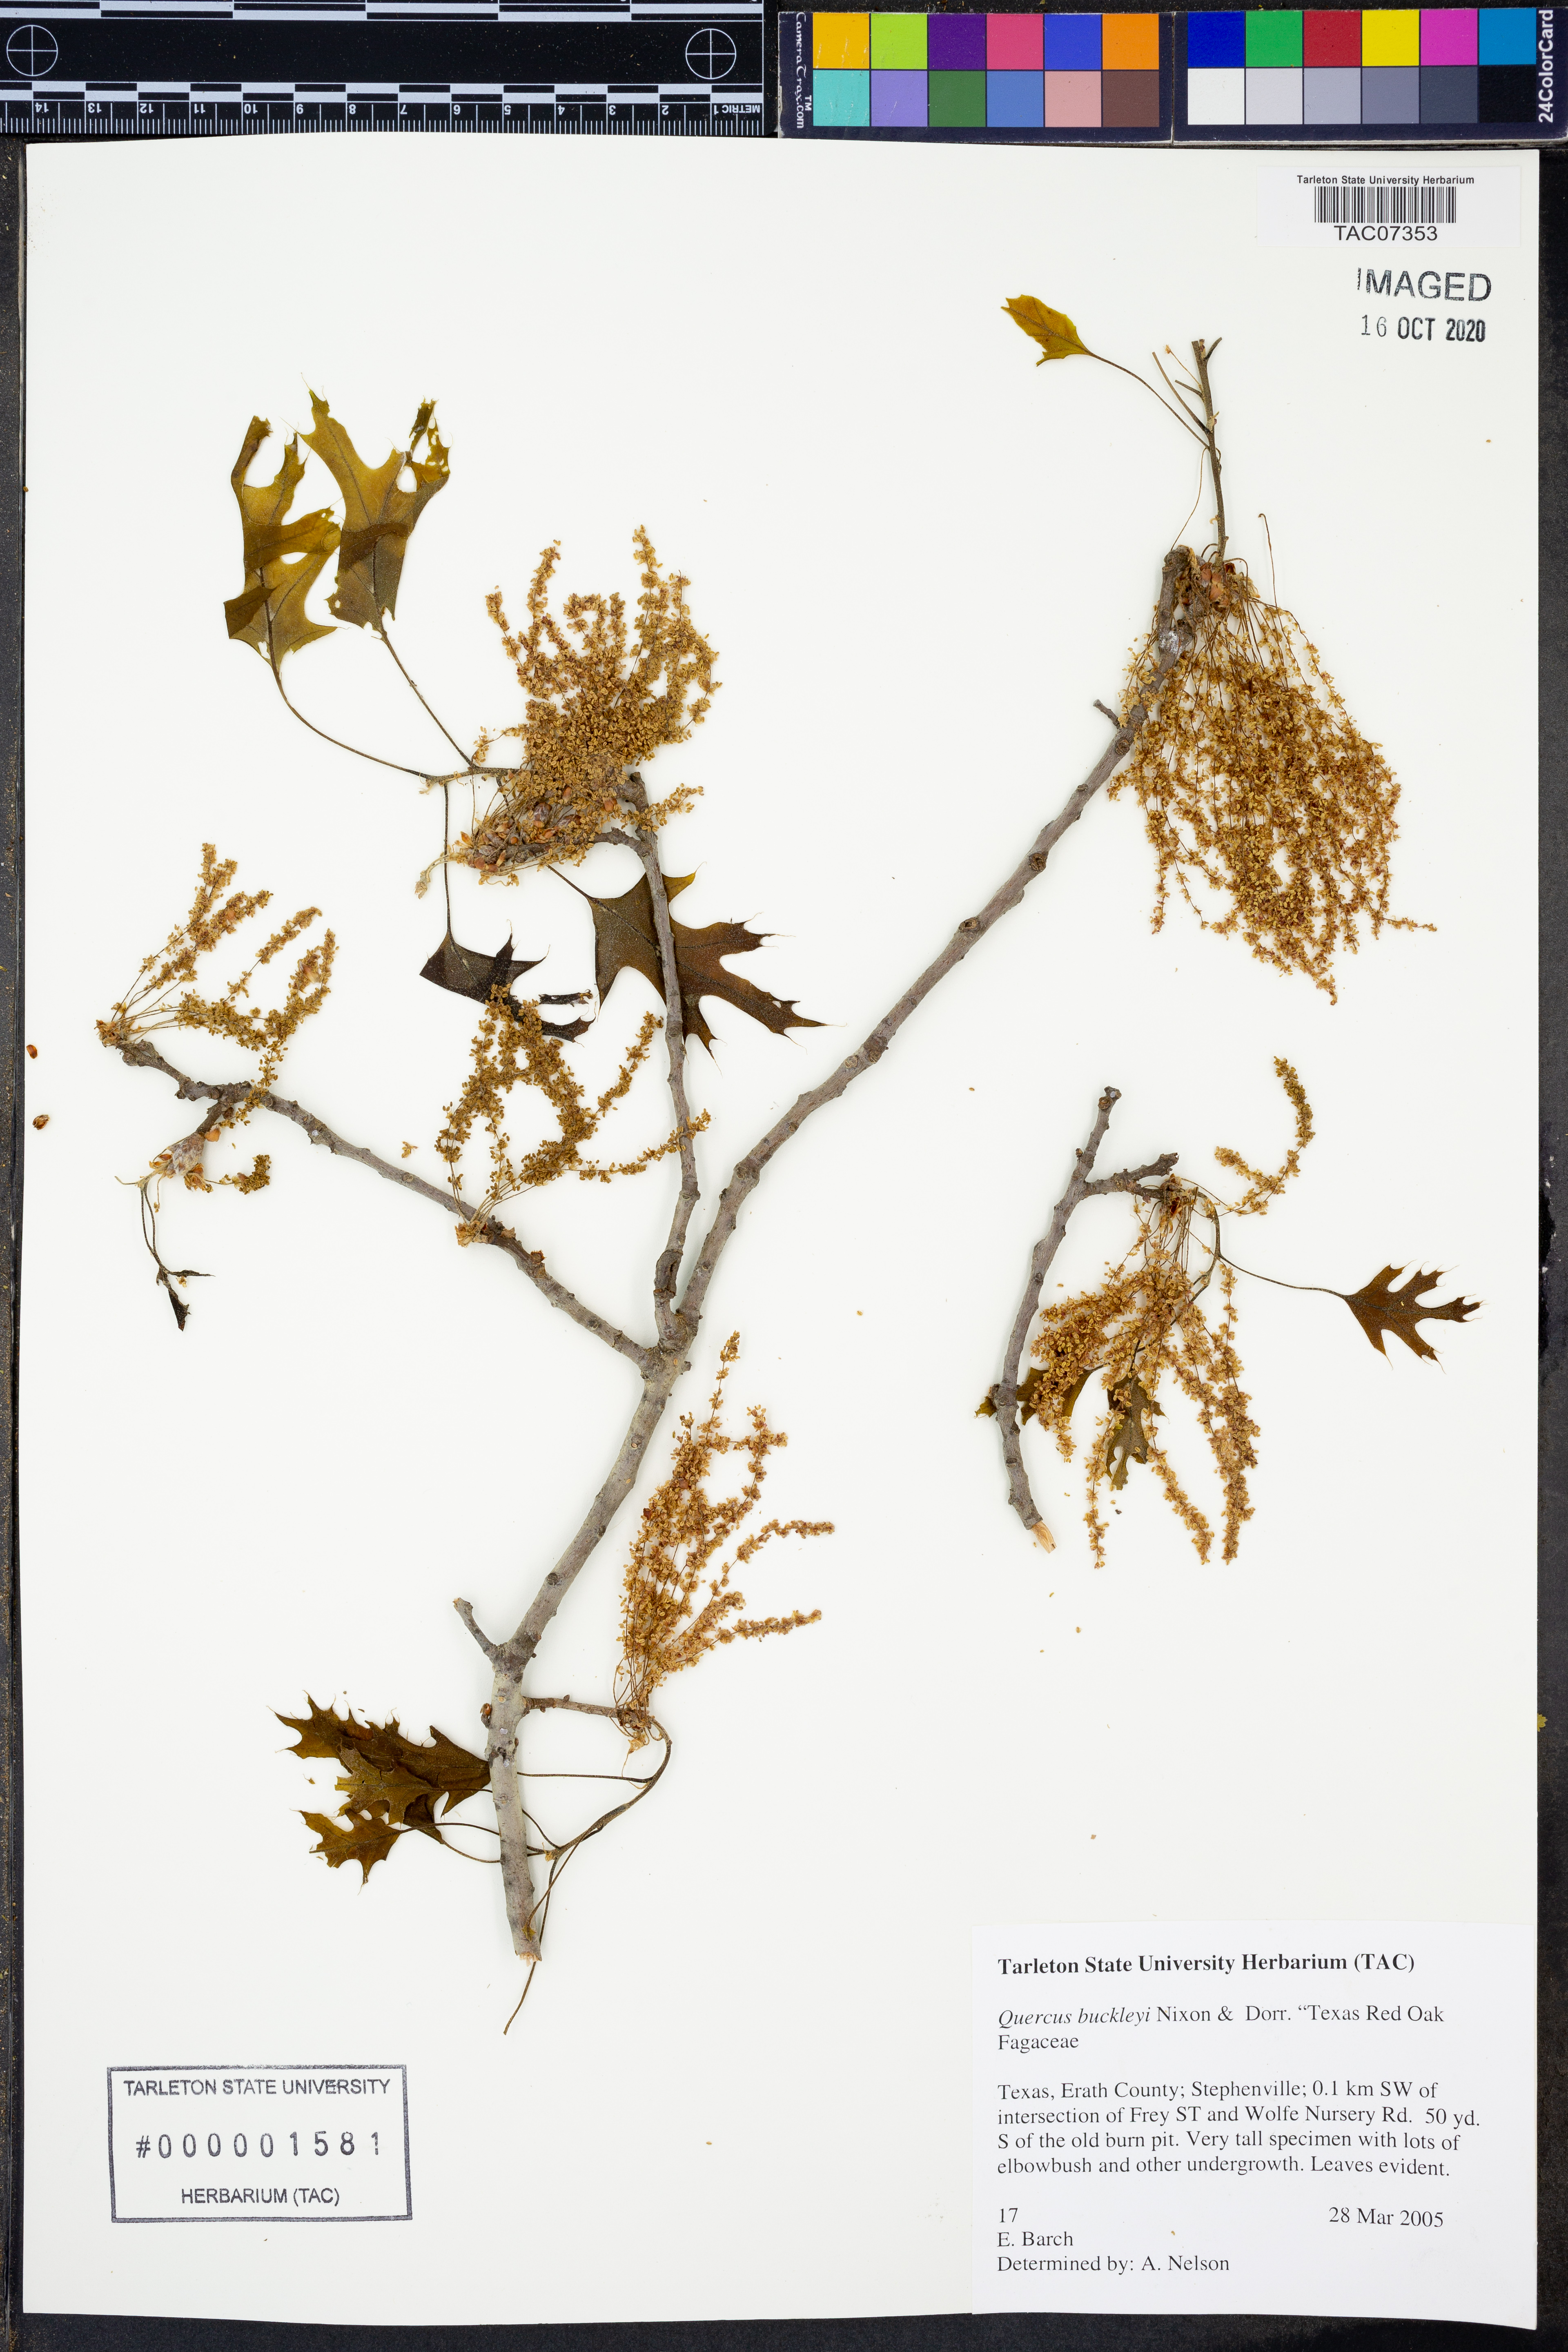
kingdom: Plantae
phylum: Tracheophyta
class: Magnoliopsida
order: Fagales
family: Fagaceae
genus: Quercus
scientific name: Quercus buckleyi
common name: Buckley oak
